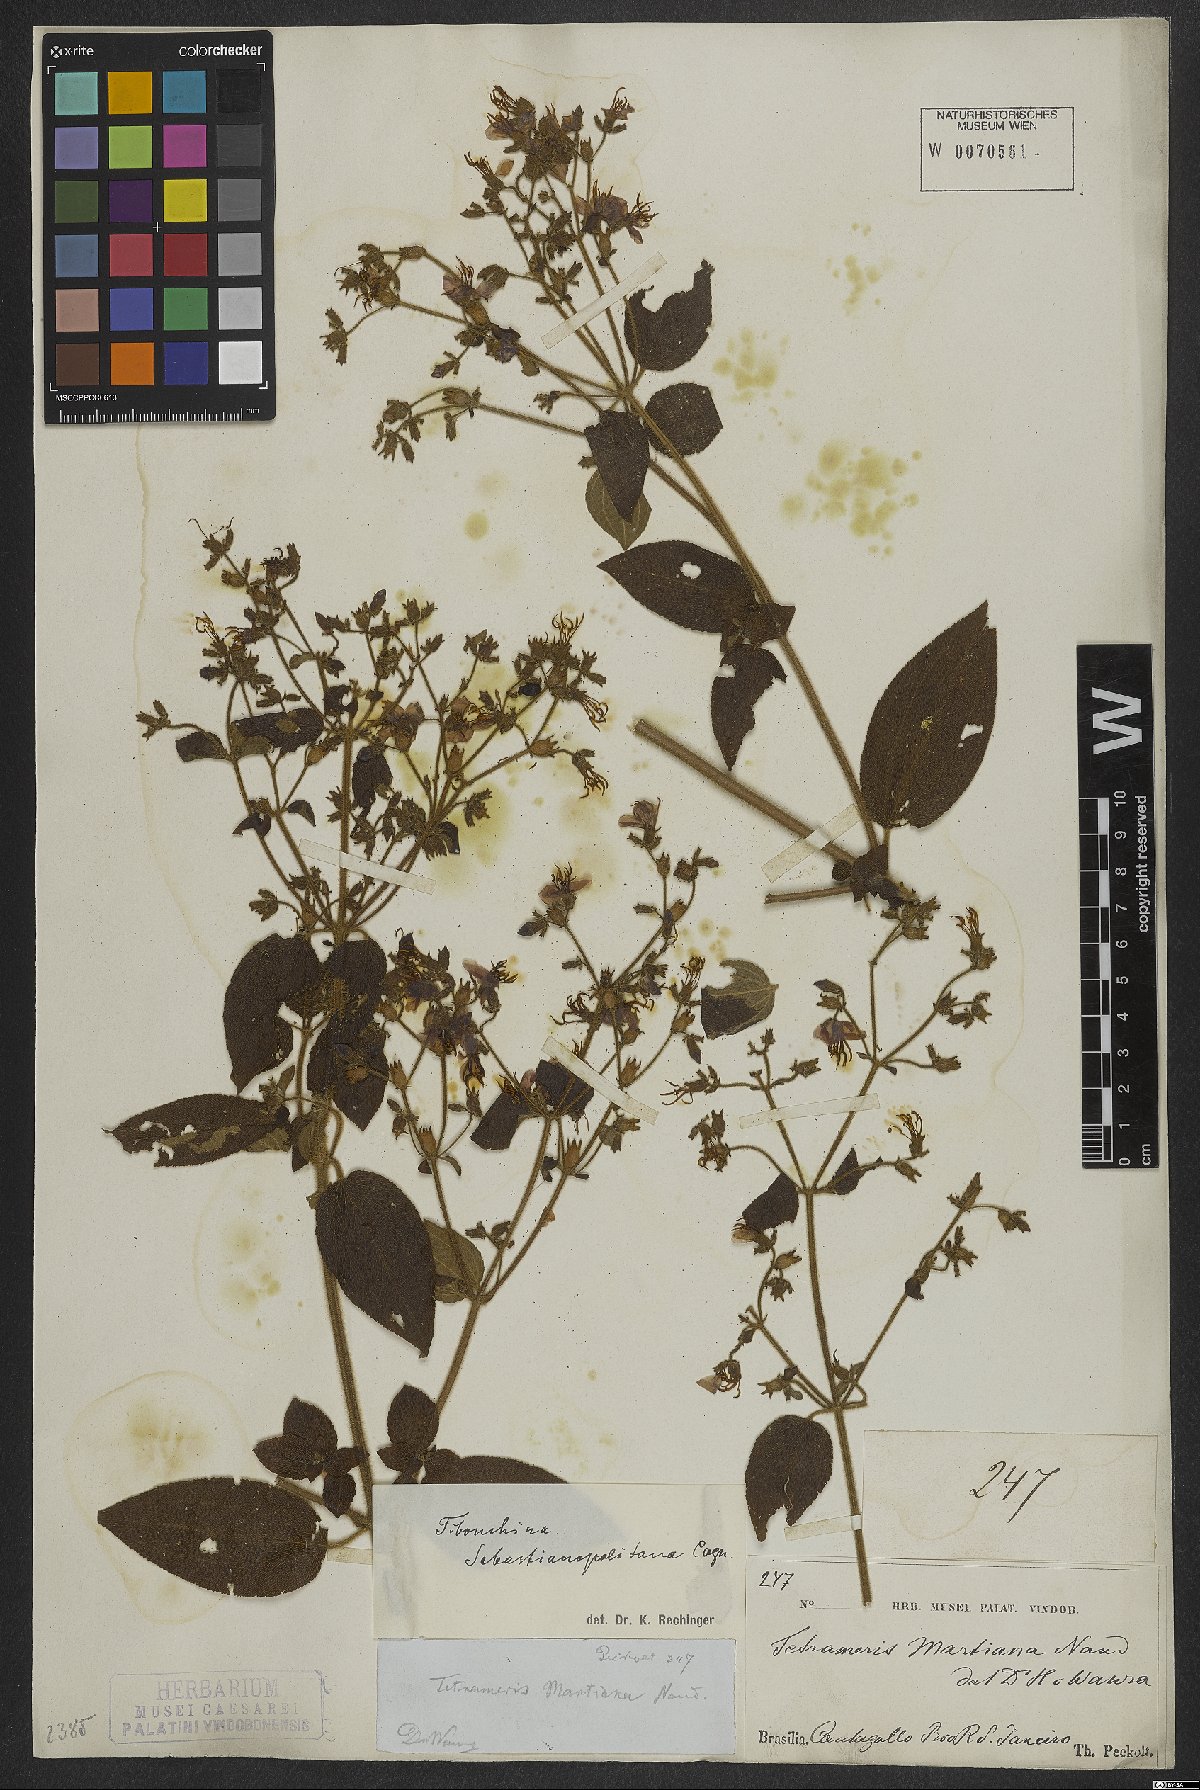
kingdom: Plantae
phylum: Tracheophyta
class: Magnoliopsida
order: Myrtales
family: Melastomataceae
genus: Chaetogastra
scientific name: Chaetogastra sebastianopolitana
